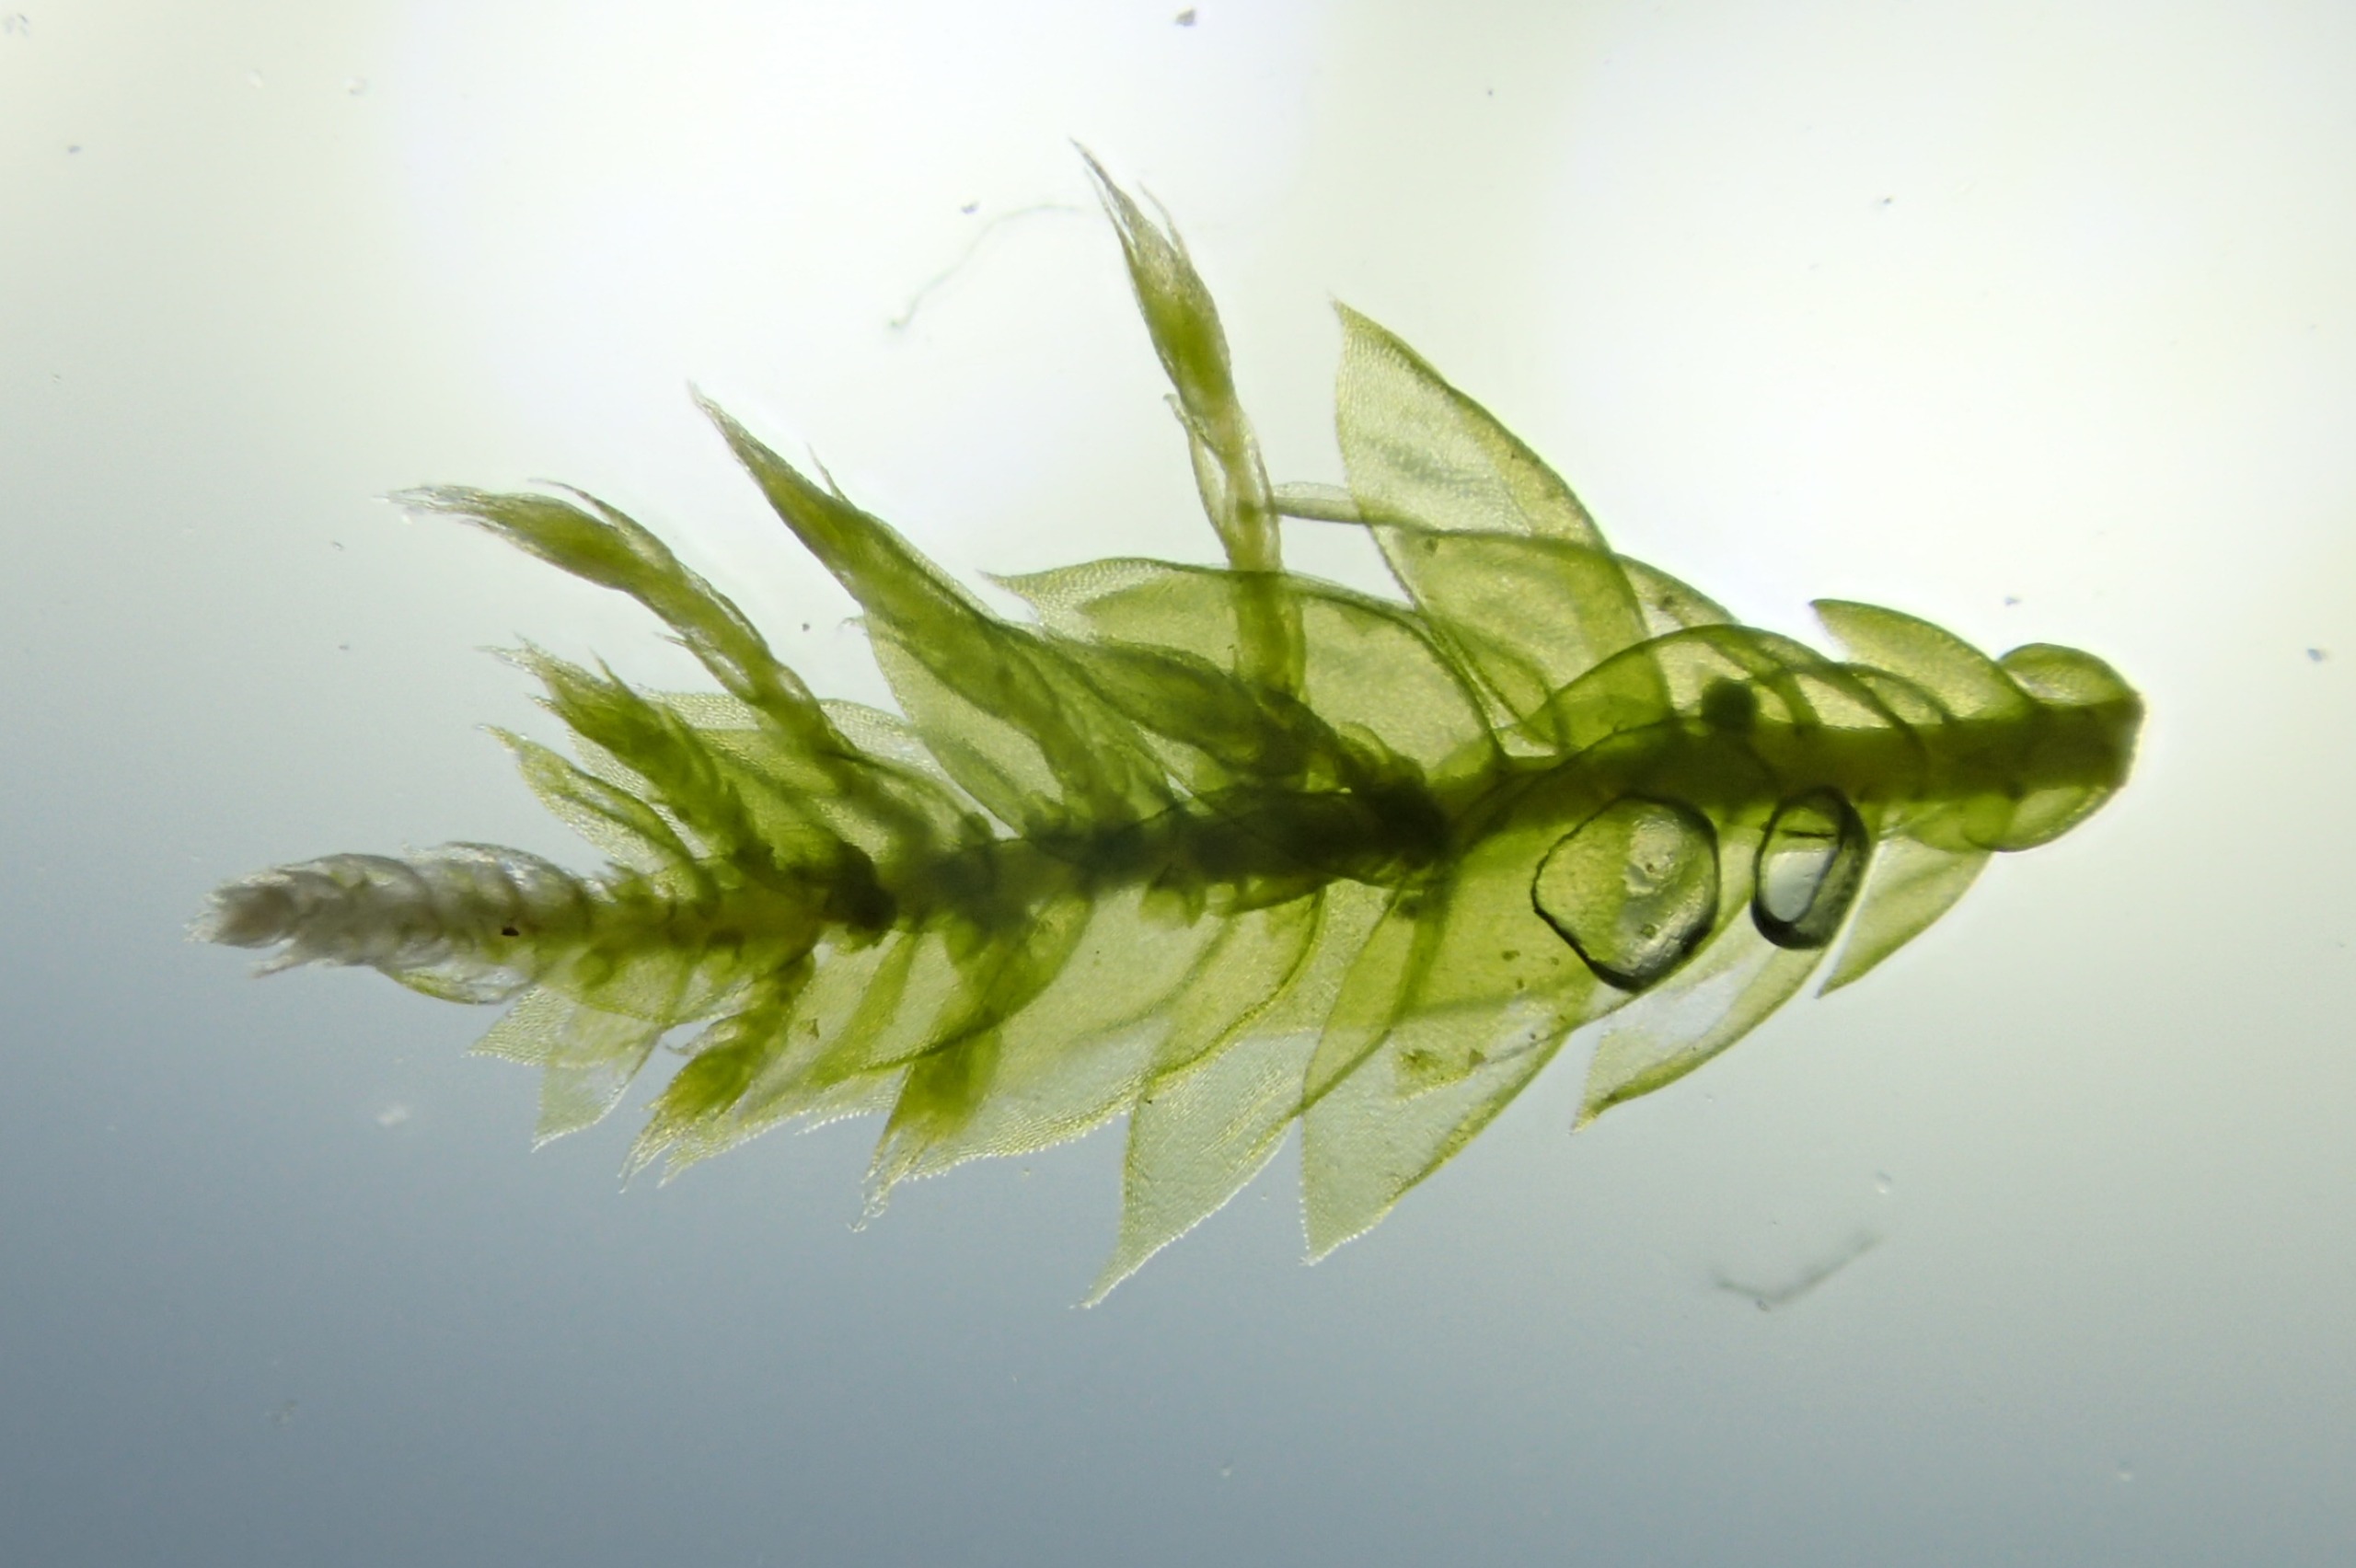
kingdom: Plantae
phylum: Bryophyta
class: Bryopsida
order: Hypnales
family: Neckeraceae
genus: Neckera
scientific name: Neckera pumila
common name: Lav fladmos
